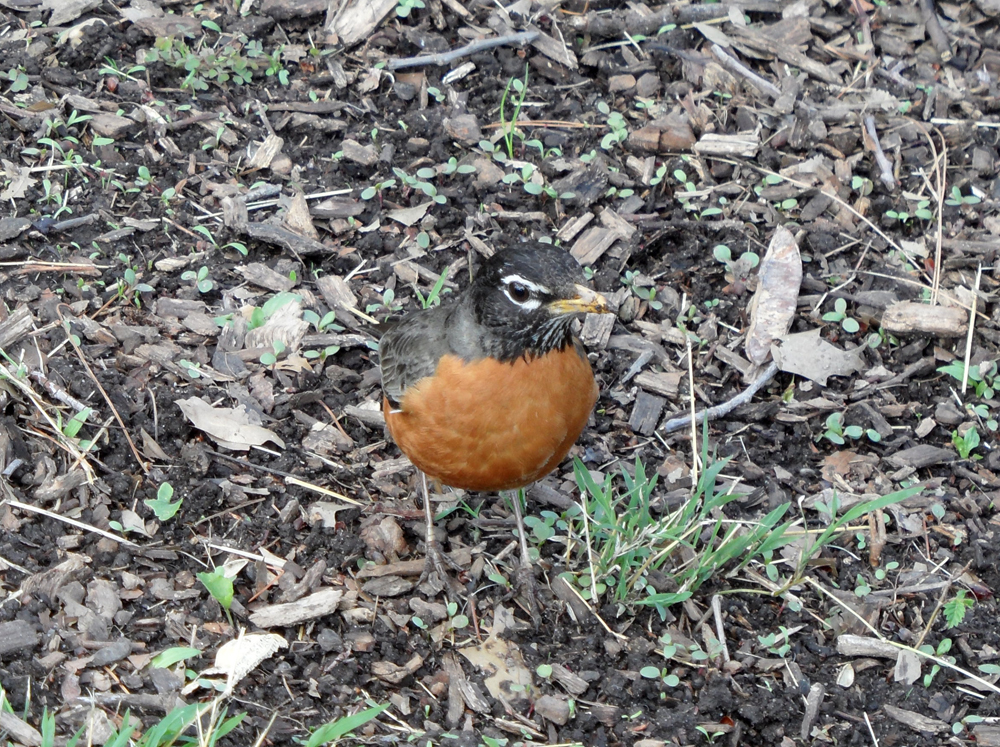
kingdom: Animalia
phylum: Chordata
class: Aves
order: Passeriformes
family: Turdidae
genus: Turdus
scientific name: Turdus migratorius
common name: American robin
